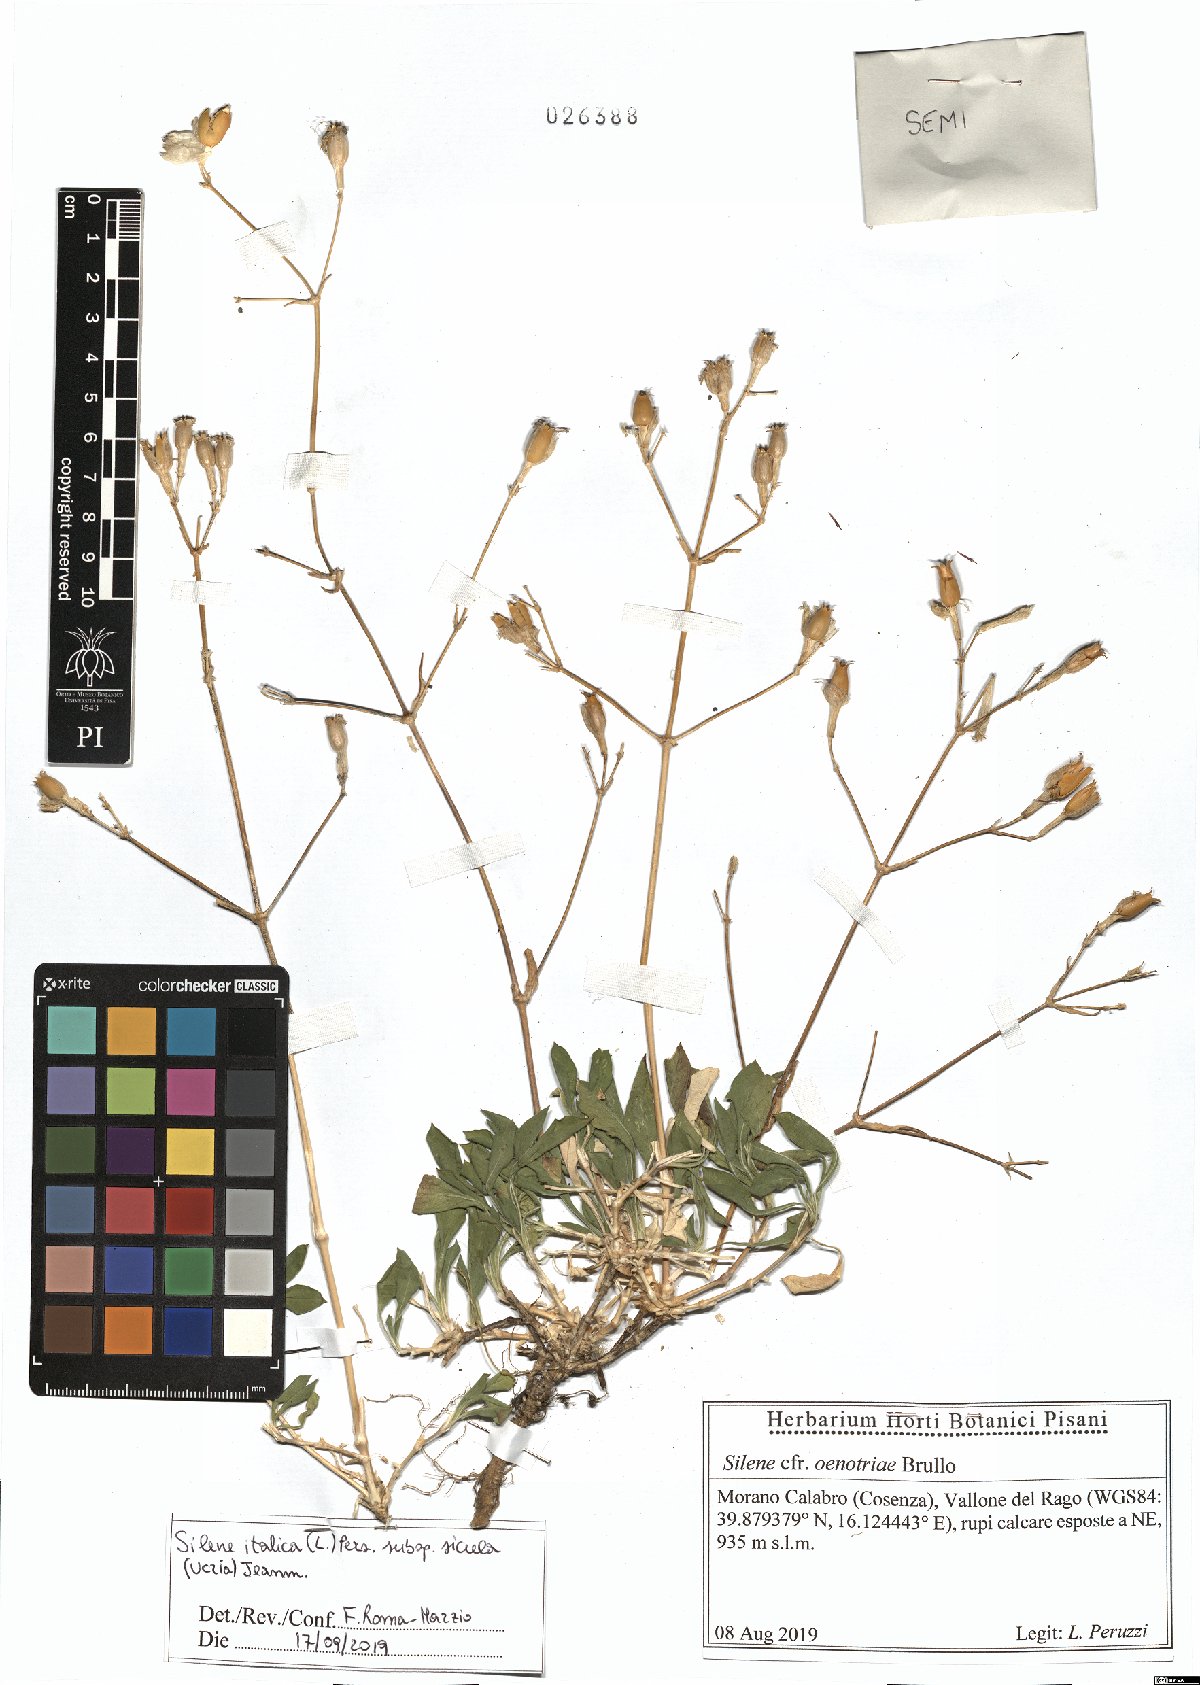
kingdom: Plantae
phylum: Tracheophyta
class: Magnoliopsida
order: Caryophyllales
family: Caryophyllaceae
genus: Silene
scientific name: Silene italica
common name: Italian catchfly
